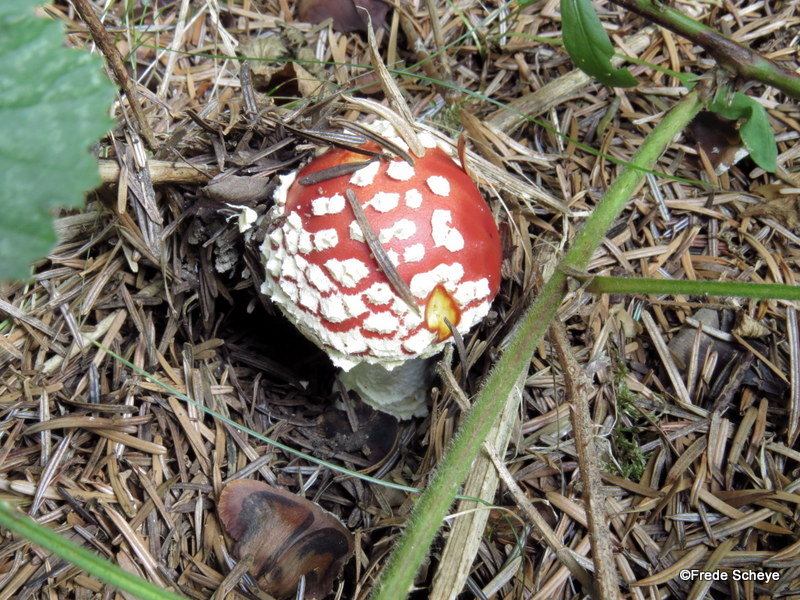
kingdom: Fungi
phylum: Basidiomycota
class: Agaricomycetes
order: Agaricales
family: Amanitaceae
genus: Amanita
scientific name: Amanita muscaria
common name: rød fluesvamp
